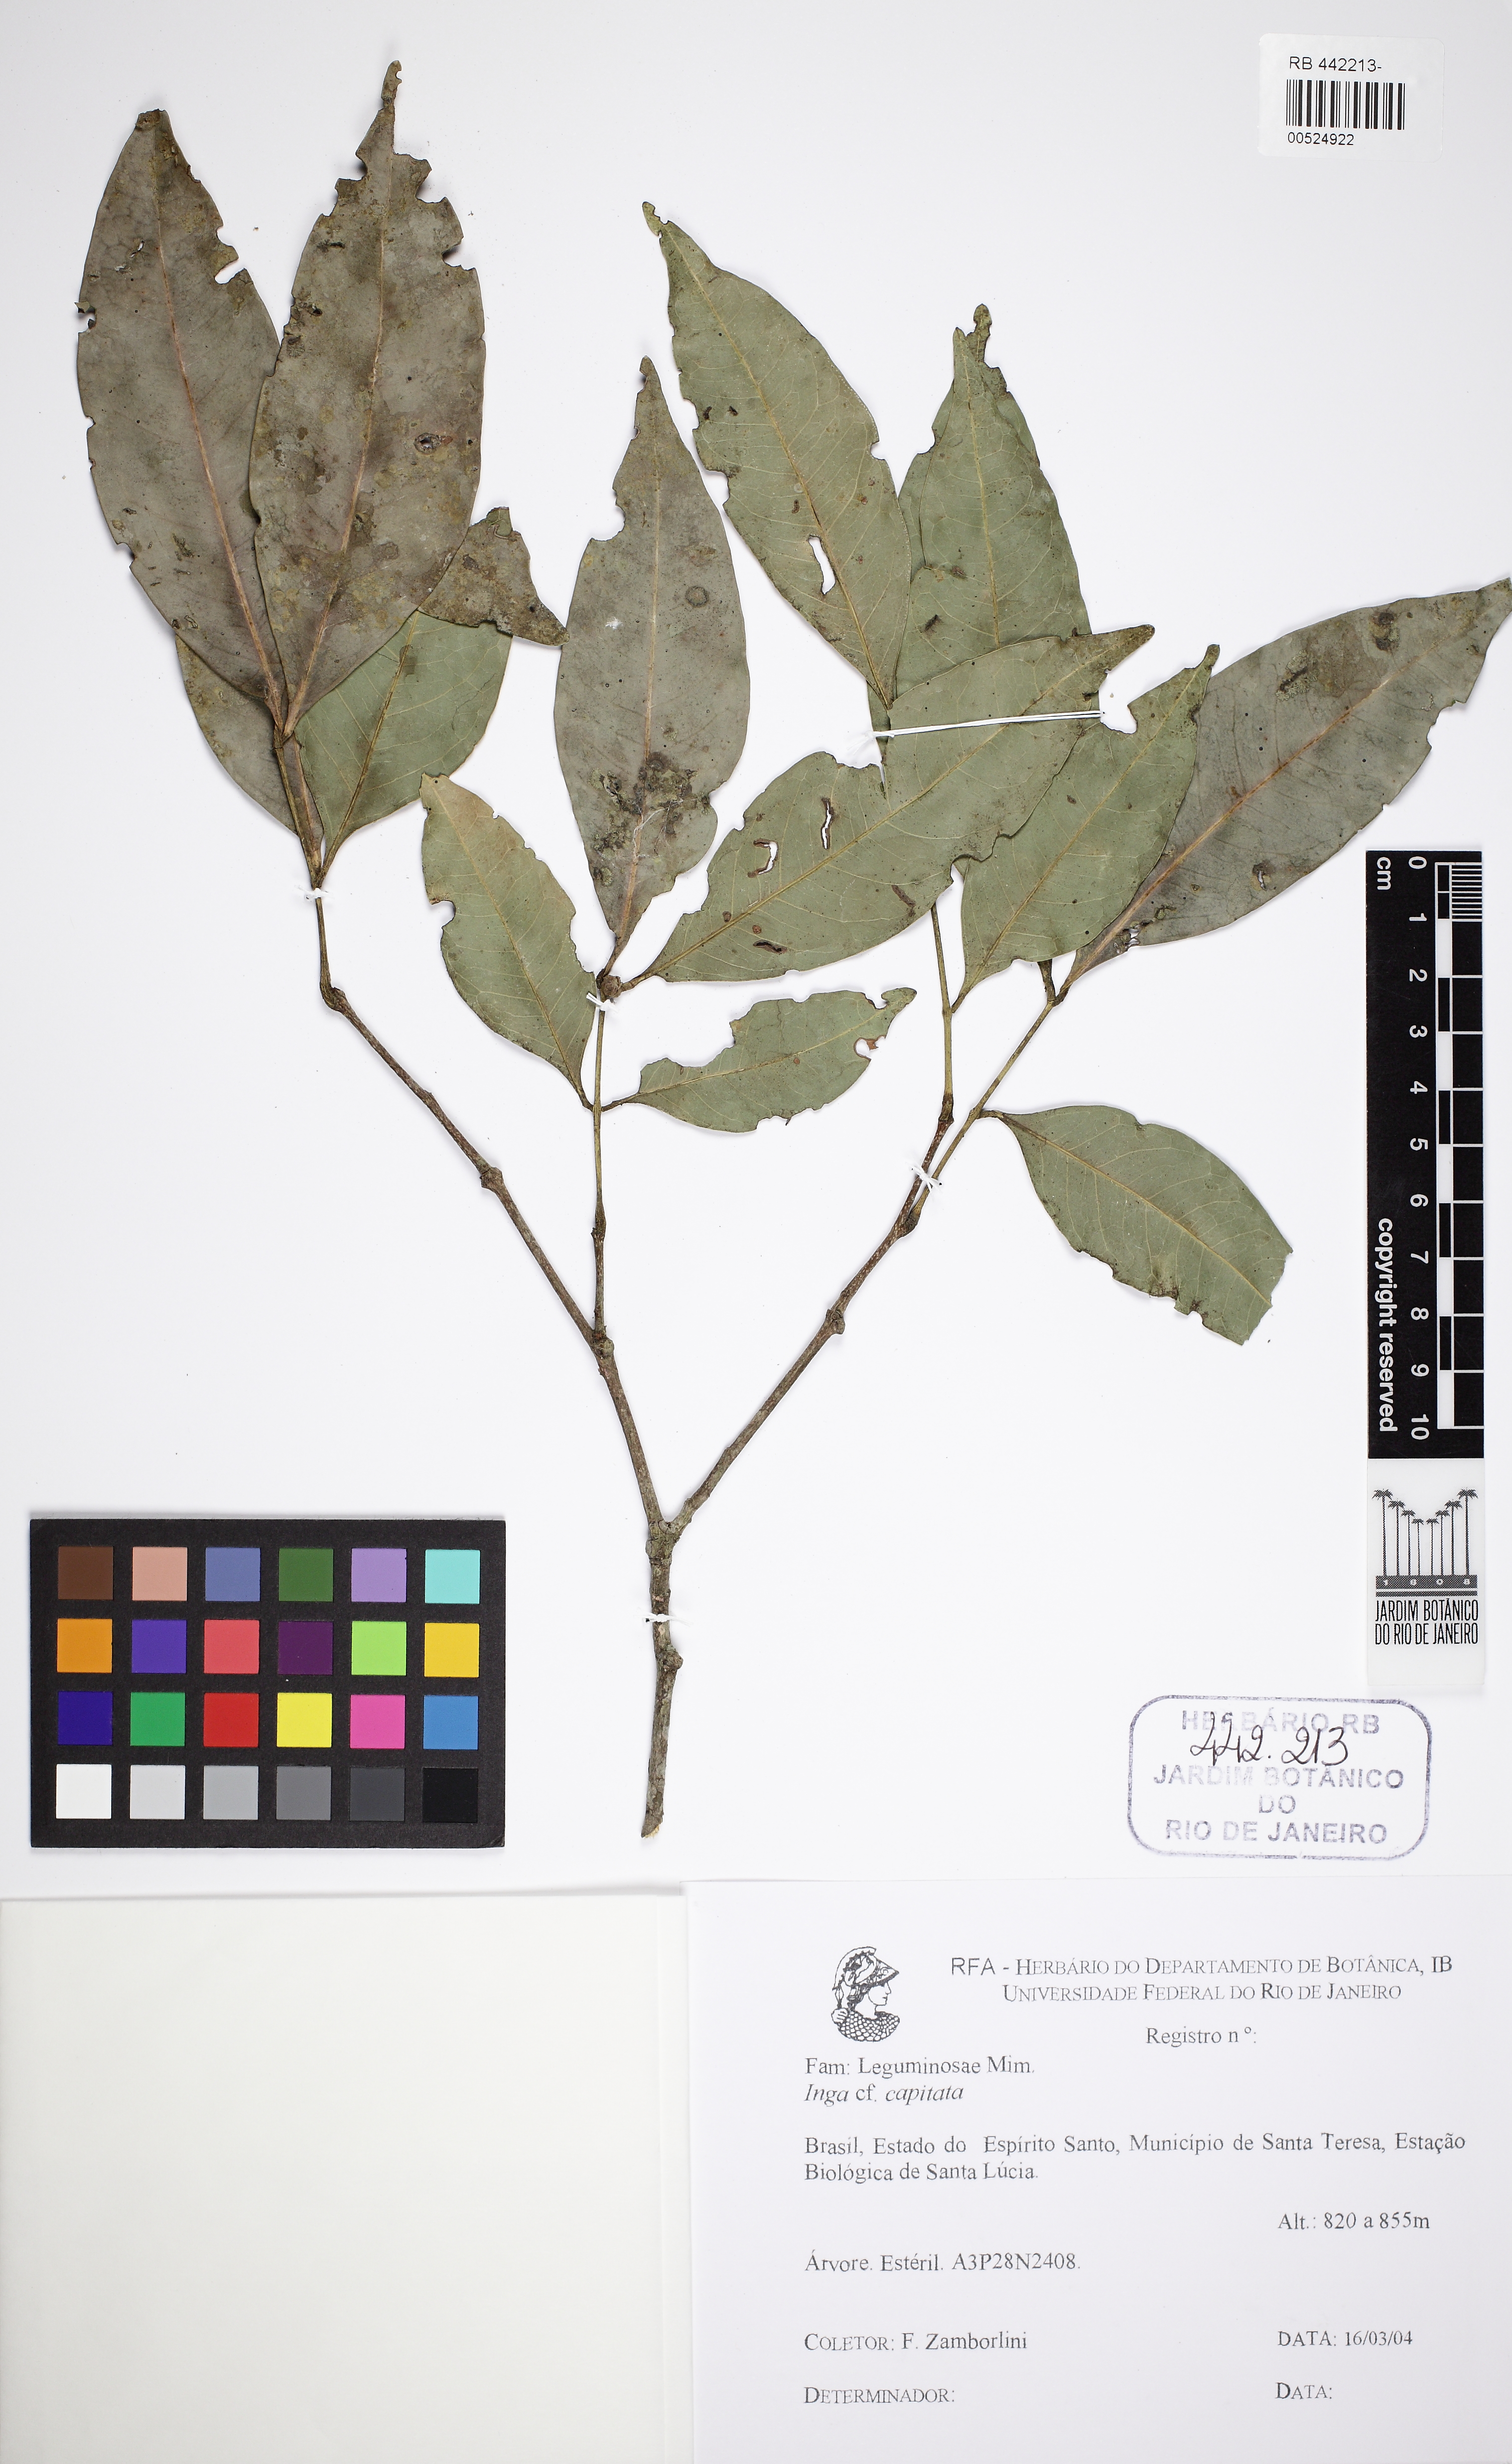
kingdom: Plantae
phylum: Tracheophyta
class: Magnoliopsida
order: Fabales
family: Fabaceae
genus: Inga
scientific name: Inga capitata
